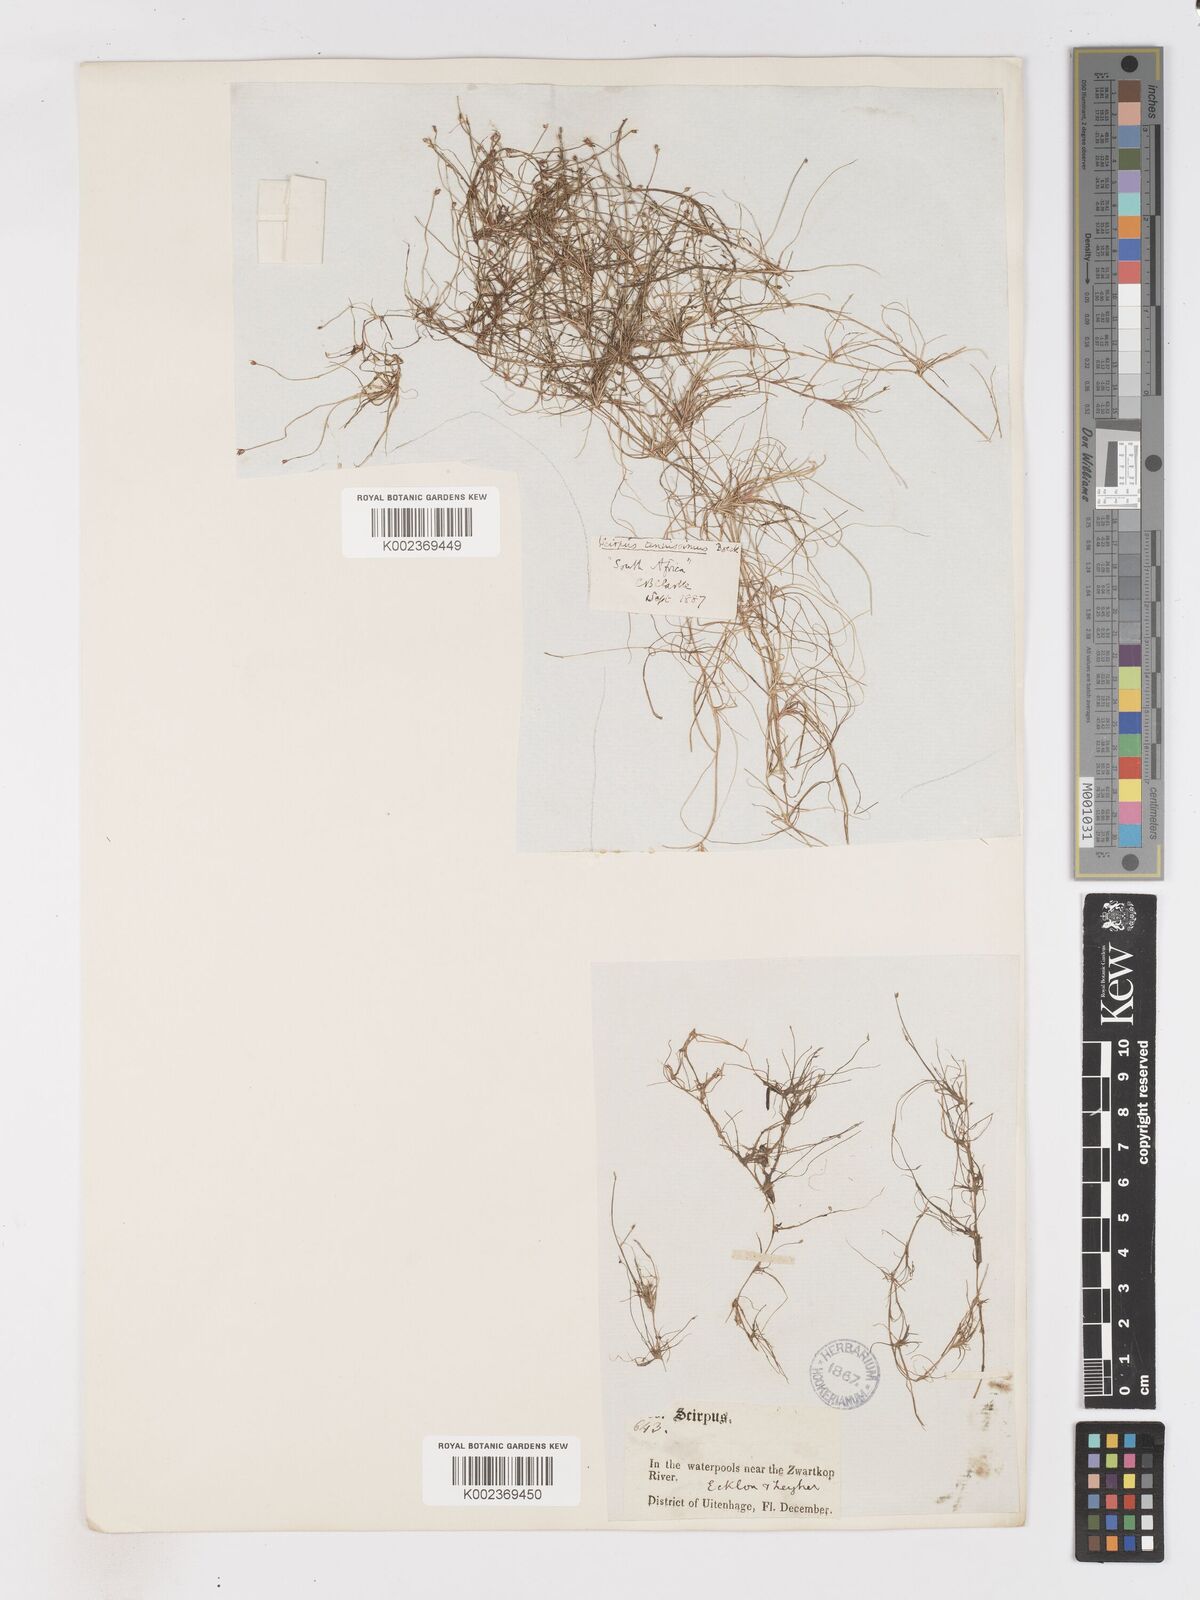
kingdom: Plantae
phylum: Tracheophyta
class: Liliopsida
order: Poales
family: Cyperaceae
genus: Isolepis
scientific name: Isolepis tenuissima
